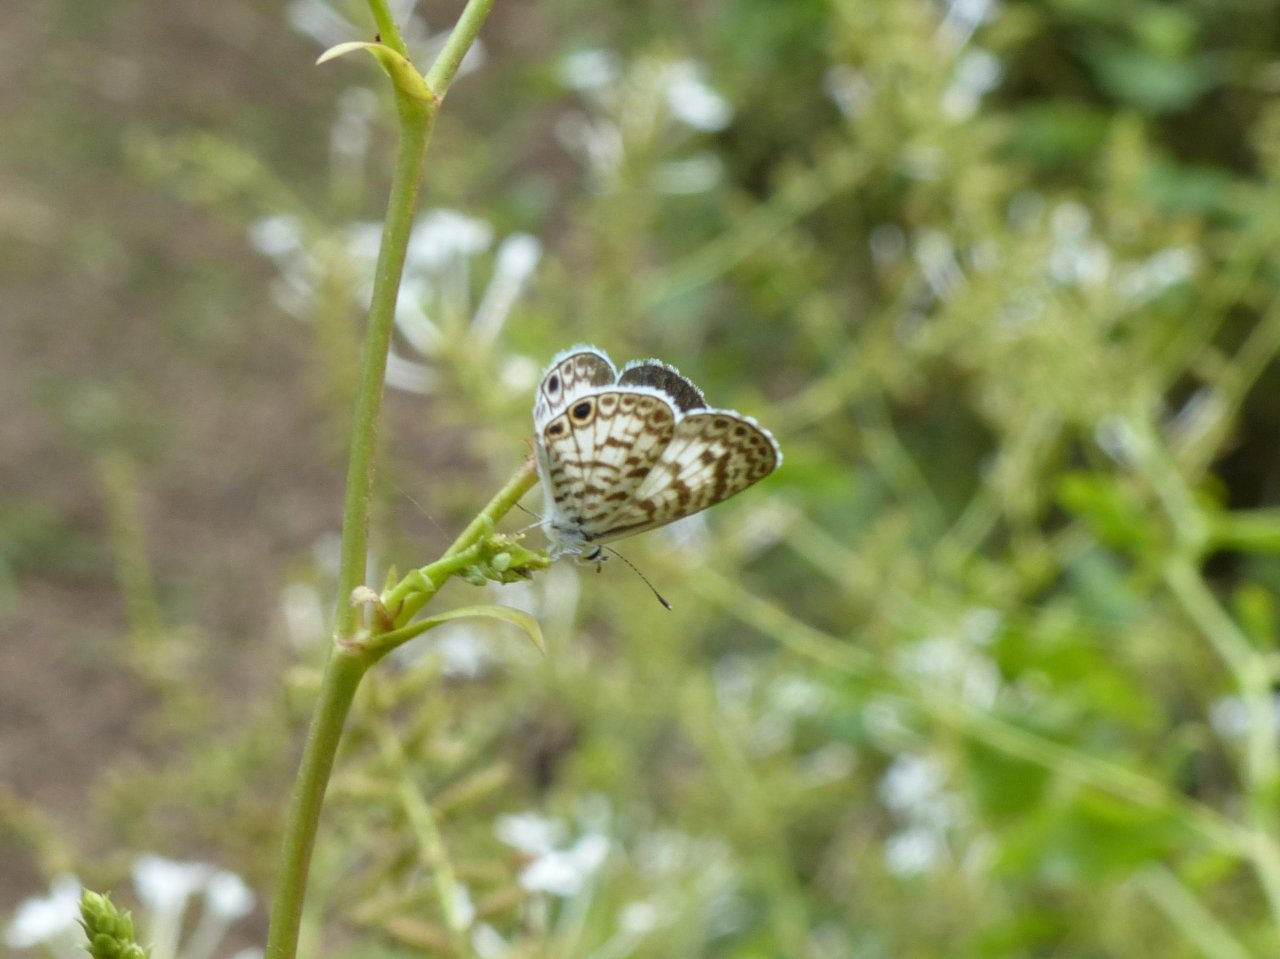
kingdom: Animalia
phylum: Arthropoda
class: Insecta
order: Lepidoptera
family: Lycaenidae
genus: Leptotes
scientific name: Leptotes cassius
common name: Cassius Blue
